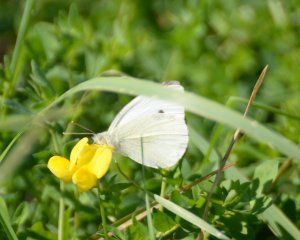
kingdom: Animalia
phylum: Arthropoda
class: Insecta
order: Lepidoptera
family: Pieridae
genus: Pieris
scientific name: Pieris rapae
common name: Cabbage White
